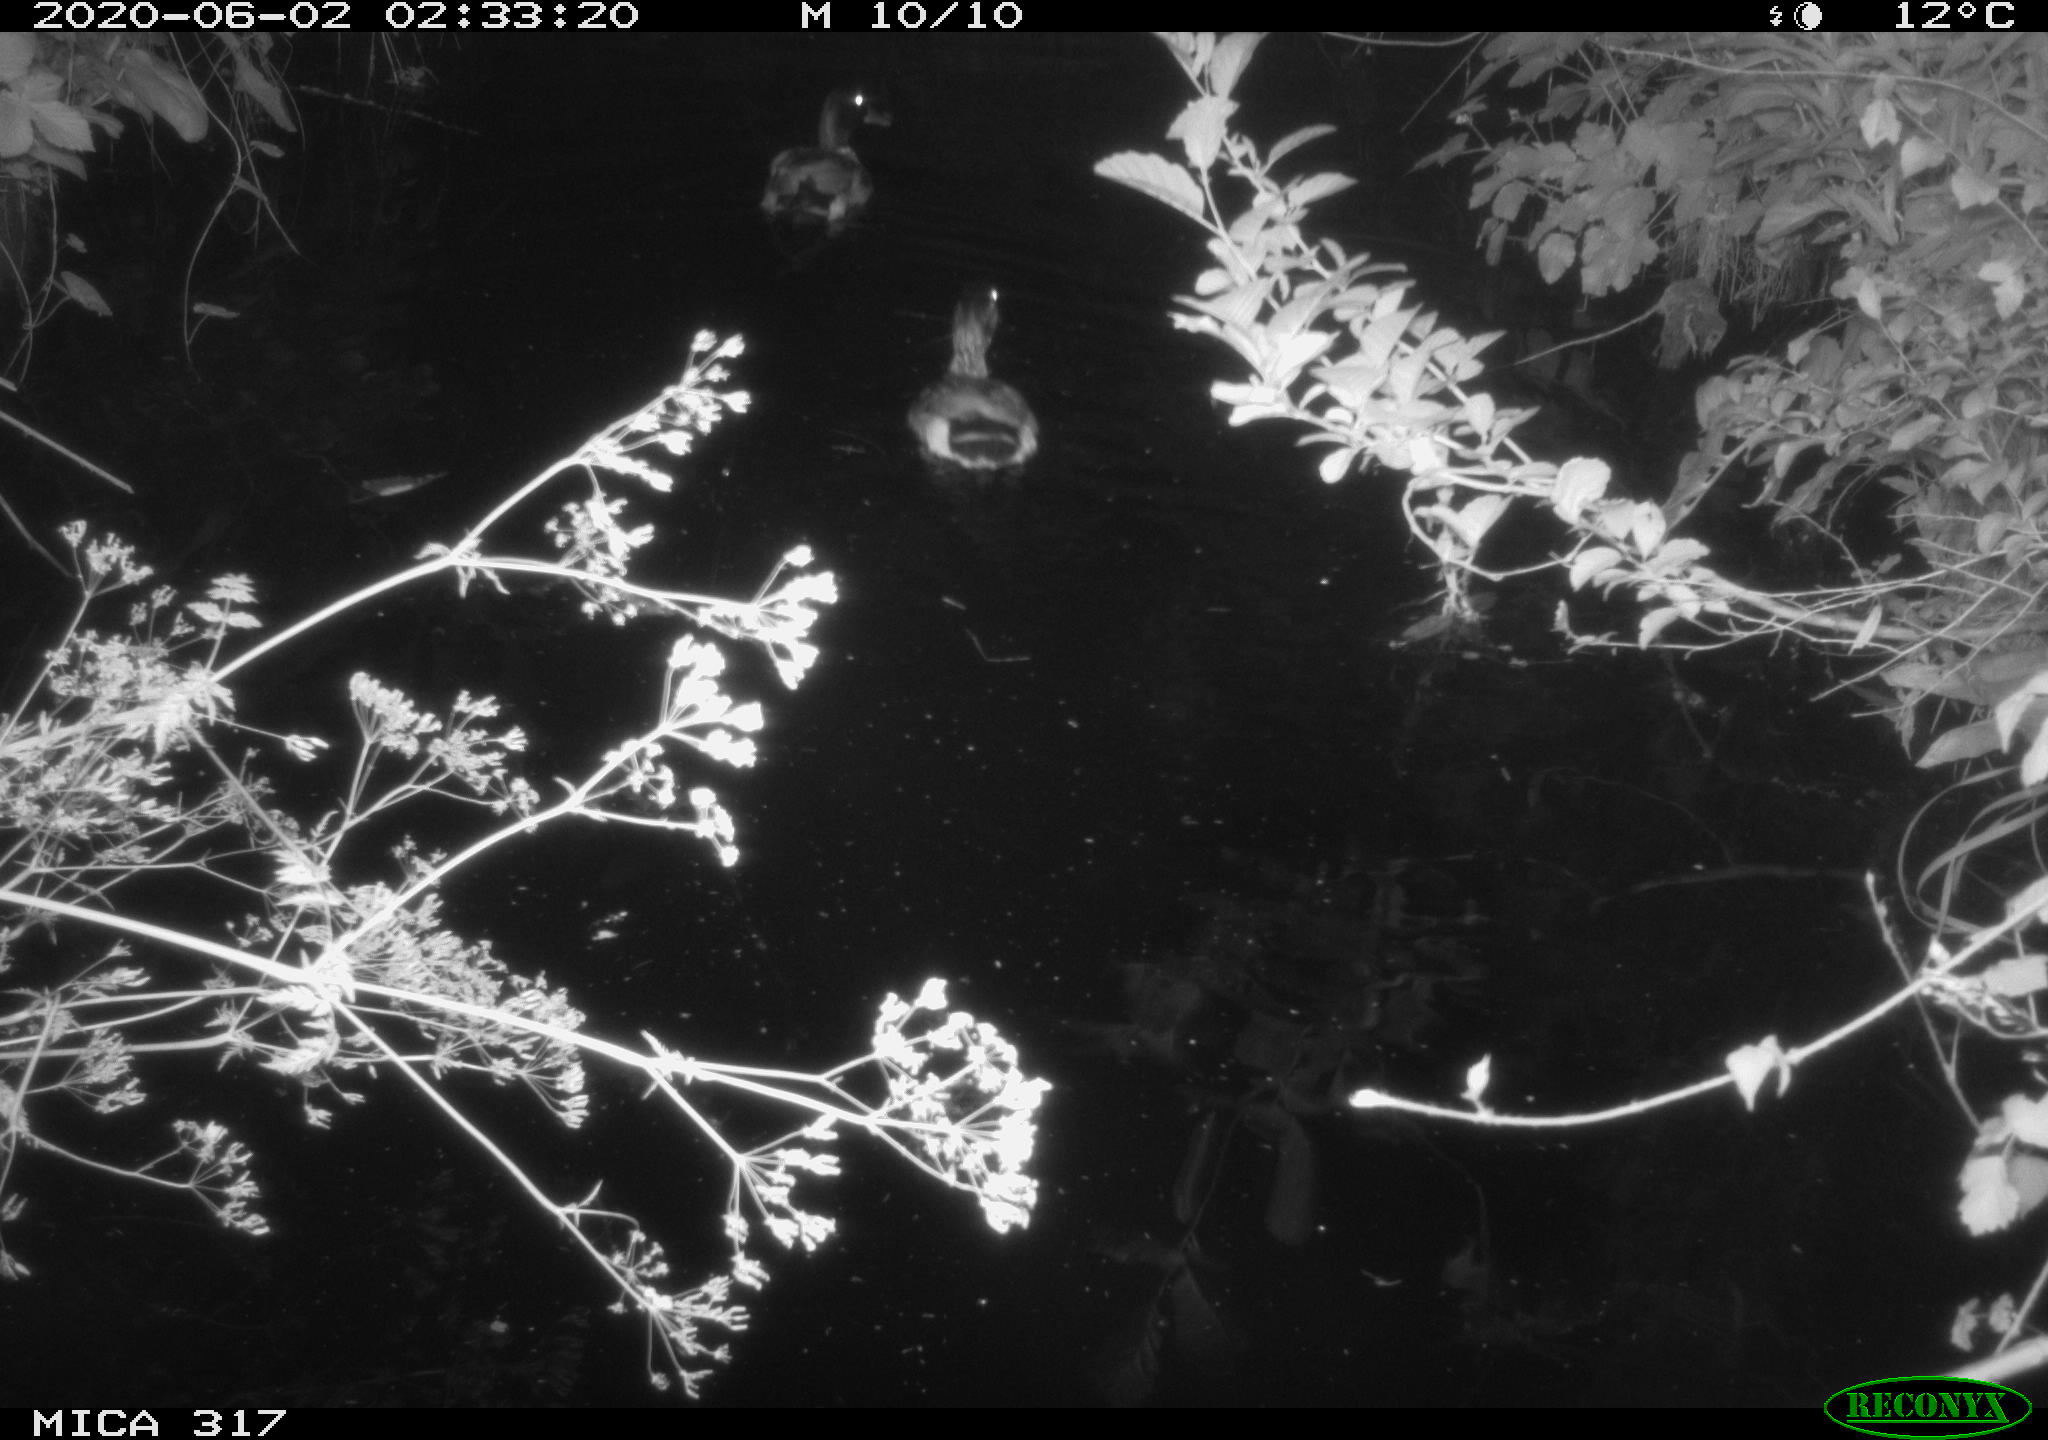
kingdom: Animalia
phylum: Chordata
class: Aves
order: Anseriformes
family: Anatidae
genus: Anas
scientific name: Anas platyrhynchos
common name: Mallard
